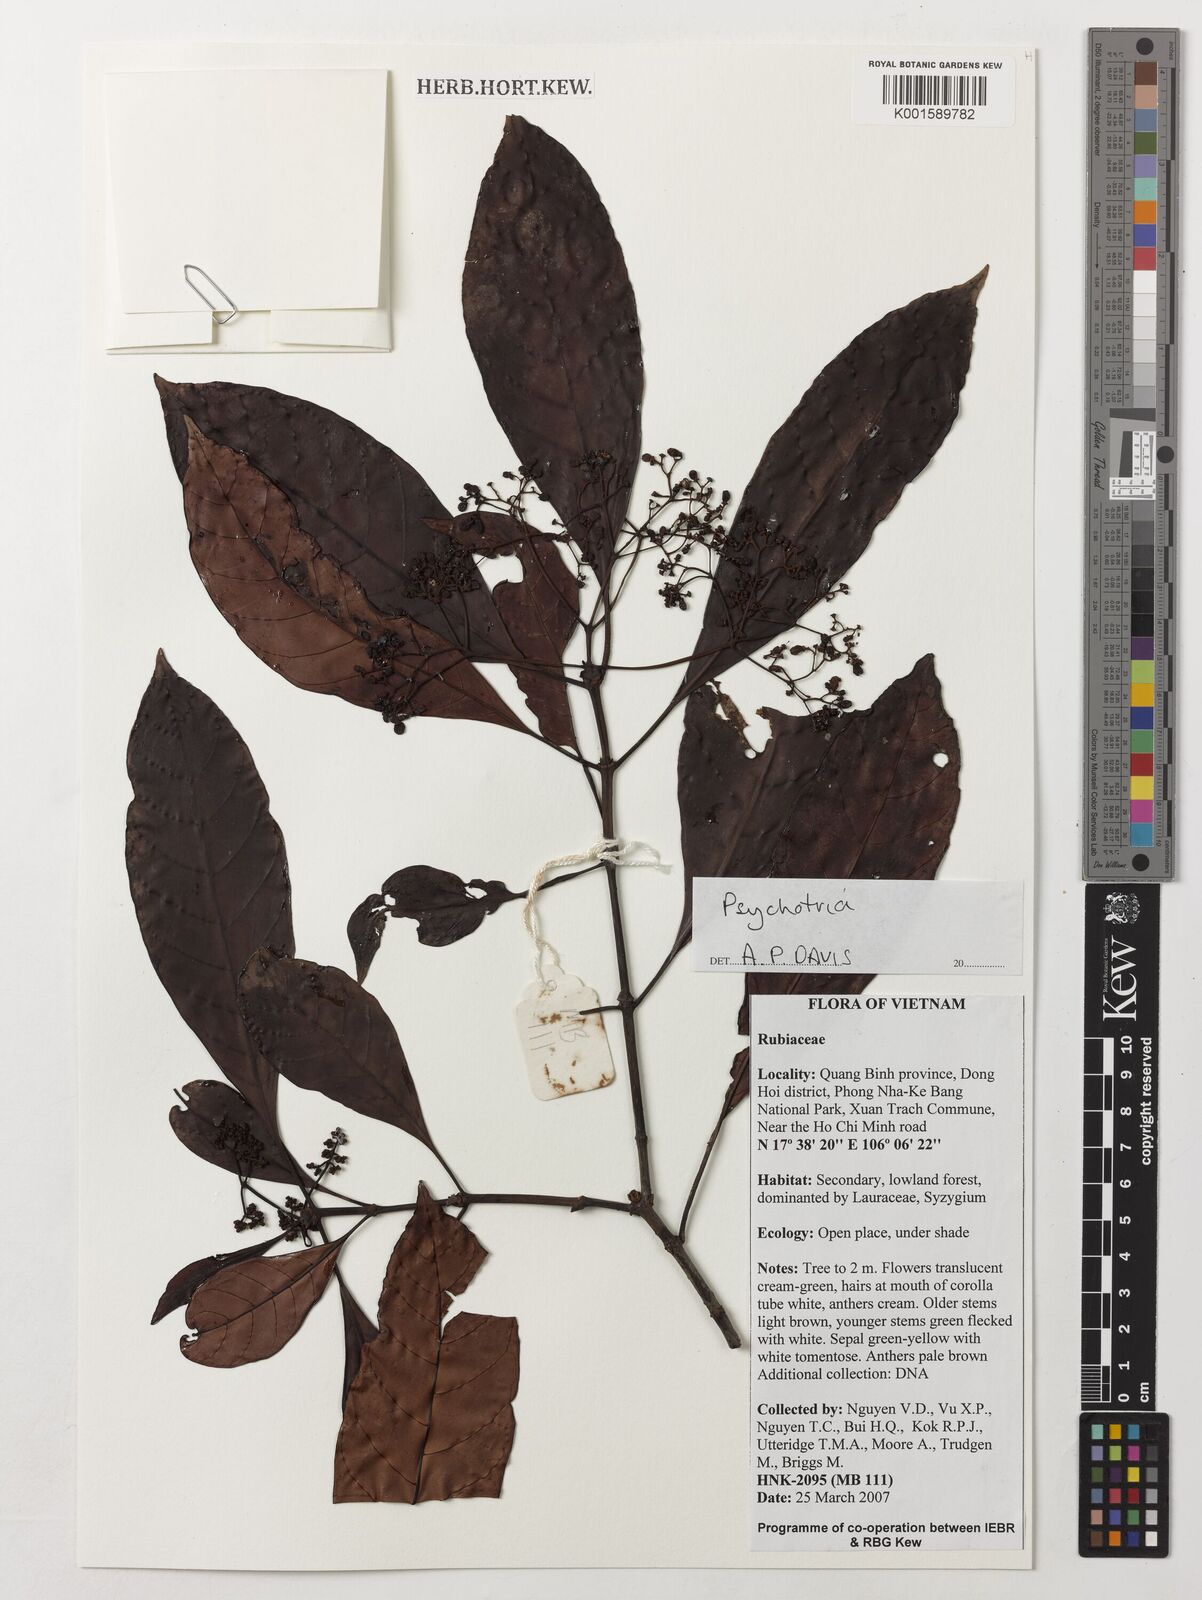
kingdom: Plantae
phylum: Tracheophyta
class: Magnoliopsida
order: Gentianales
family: Rubiaceae
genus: Psychotria
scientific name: Psychotria
